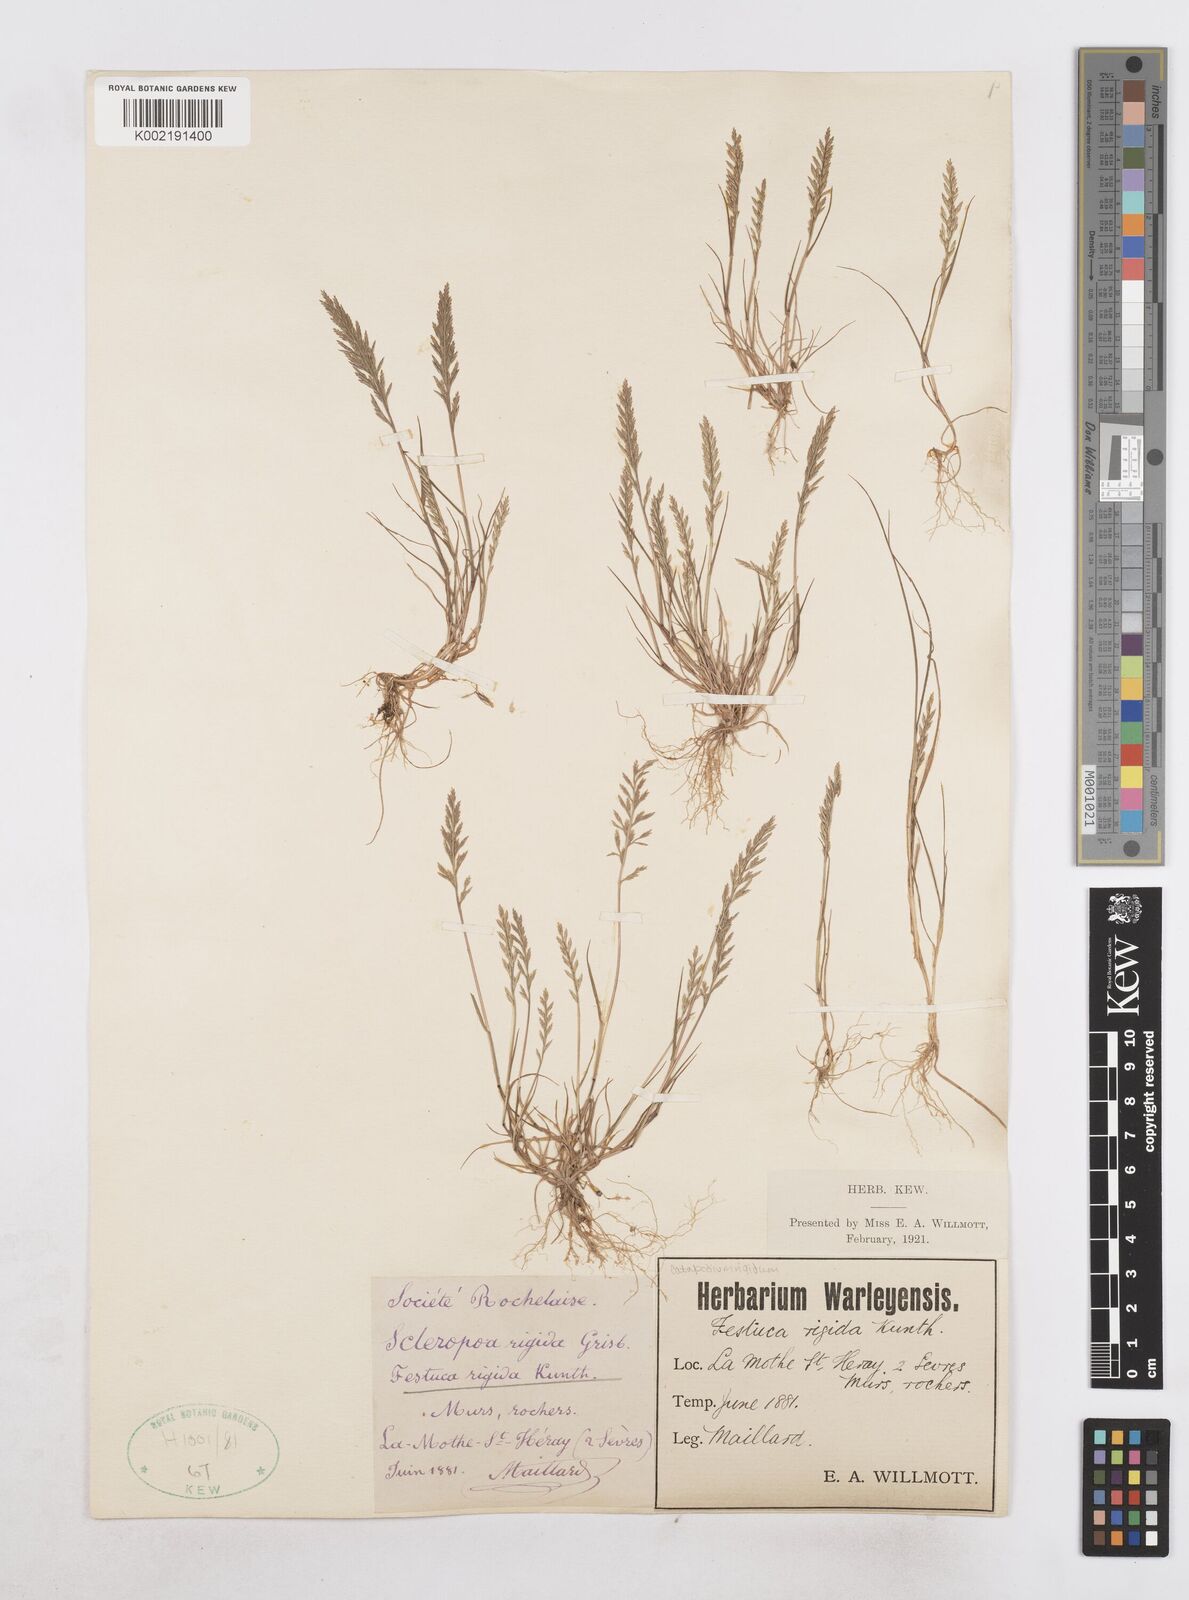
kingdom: Plantae
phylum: Tracheophyta
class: Liliopsida
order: Poales
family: Poaceae
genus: Catapodium
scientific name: Catapodium rigidum
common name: Fern-grass
